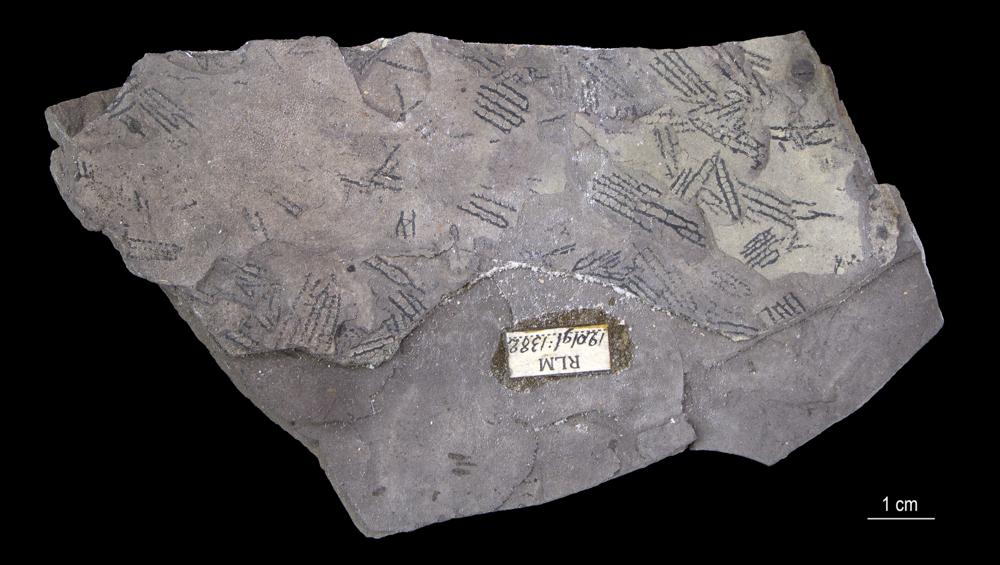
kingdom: Animalia
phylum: Hemichordata
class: Pterobranchia
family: Anisograptidae
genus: Rhabdinopora
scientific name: Rhabdinopora Gorgonia flabelliformis
